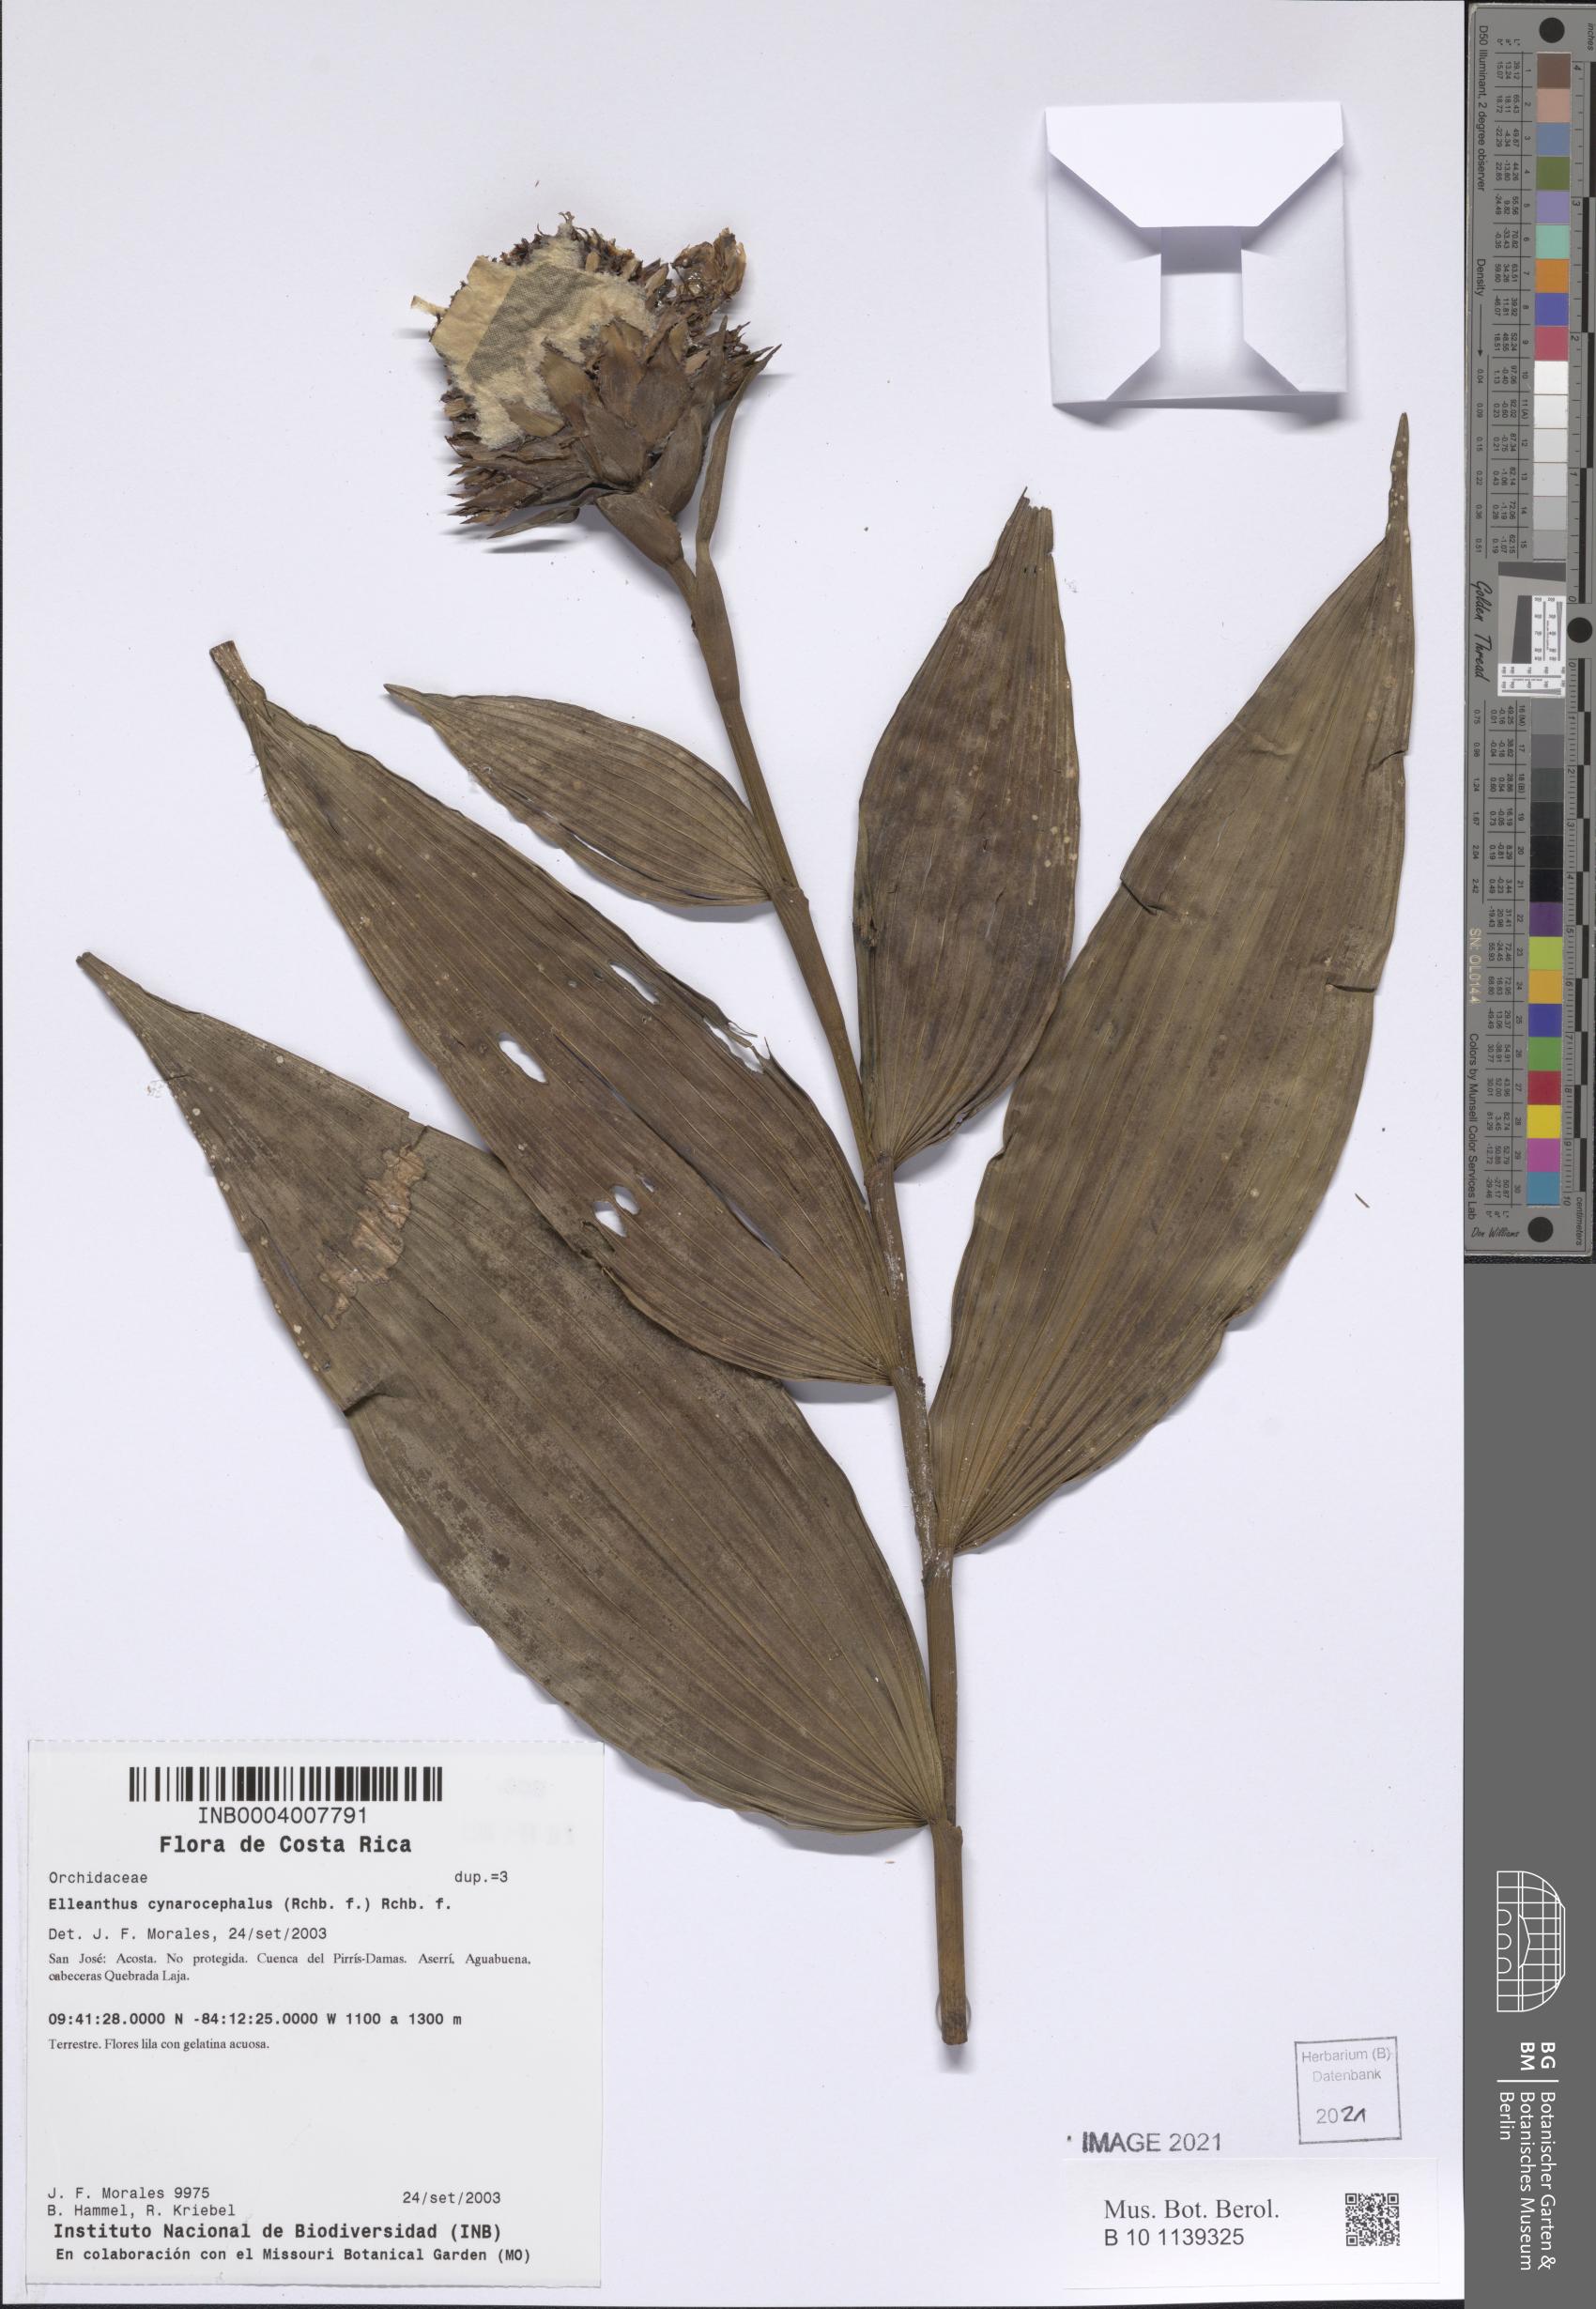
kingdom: Plantae
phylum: Tracheophyta
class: Liliopsida
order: Asparagales
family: Orchidaceae
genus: Elleanthus
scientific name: Elleanthus capitatus
